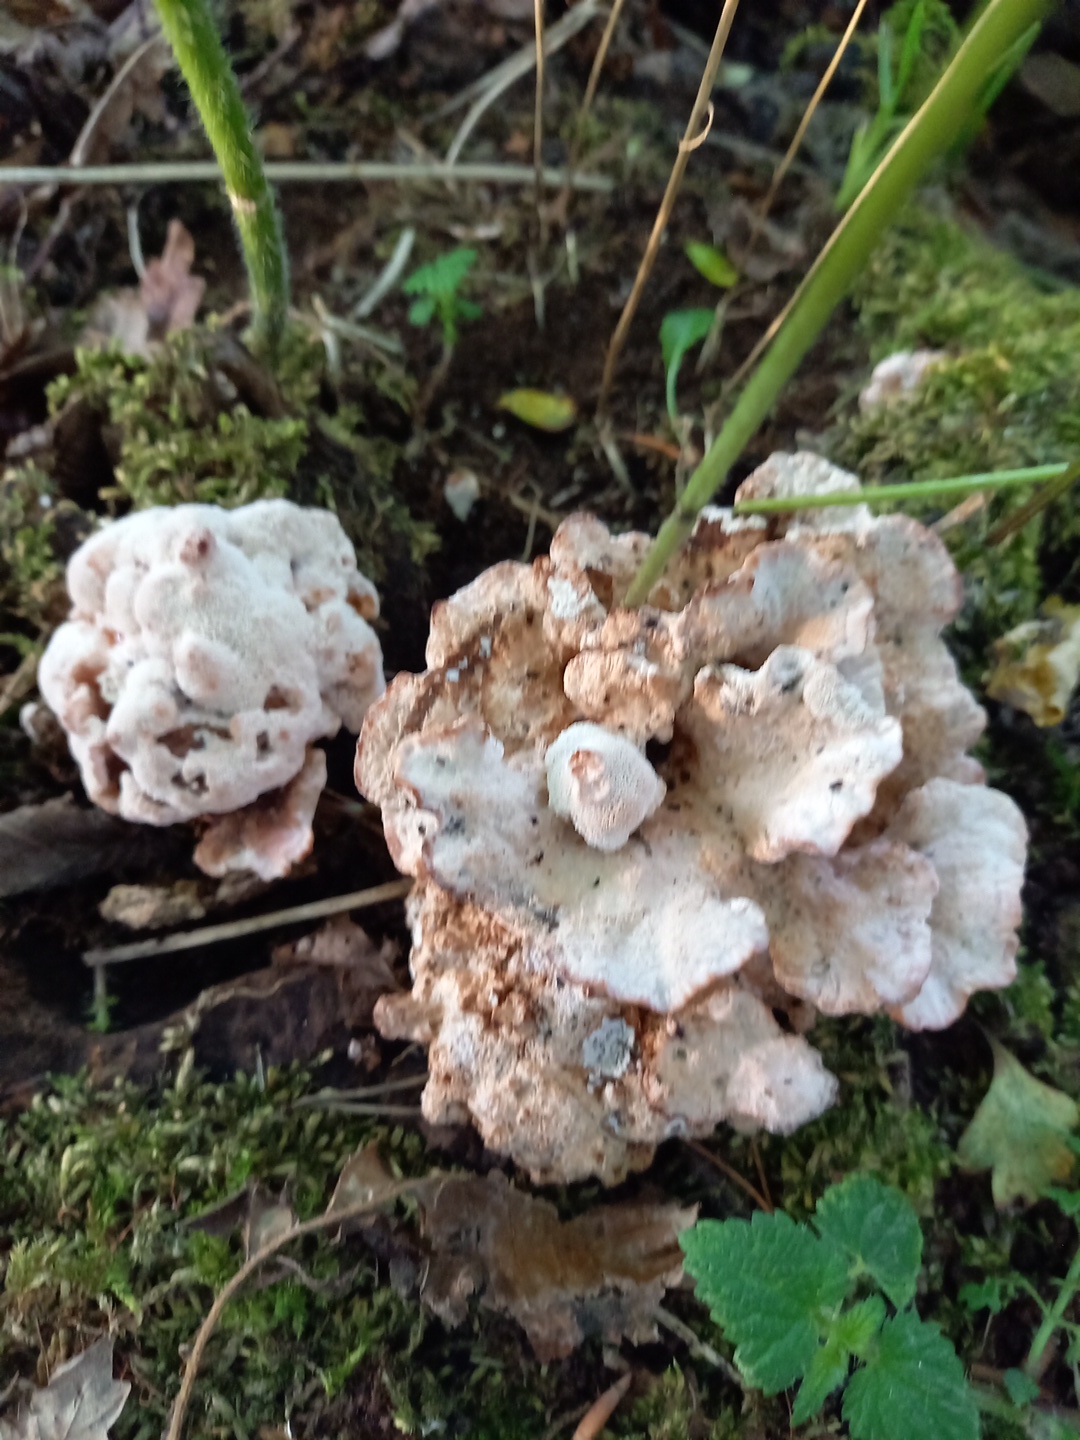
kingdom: Fungi
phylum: Basidiomycota
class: Agaricomycetes
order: Polyporales
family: Podoscyphaceae
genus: Abortiporus
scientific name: Abortiporus biennis
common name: rødmende pjalteporesvamp
